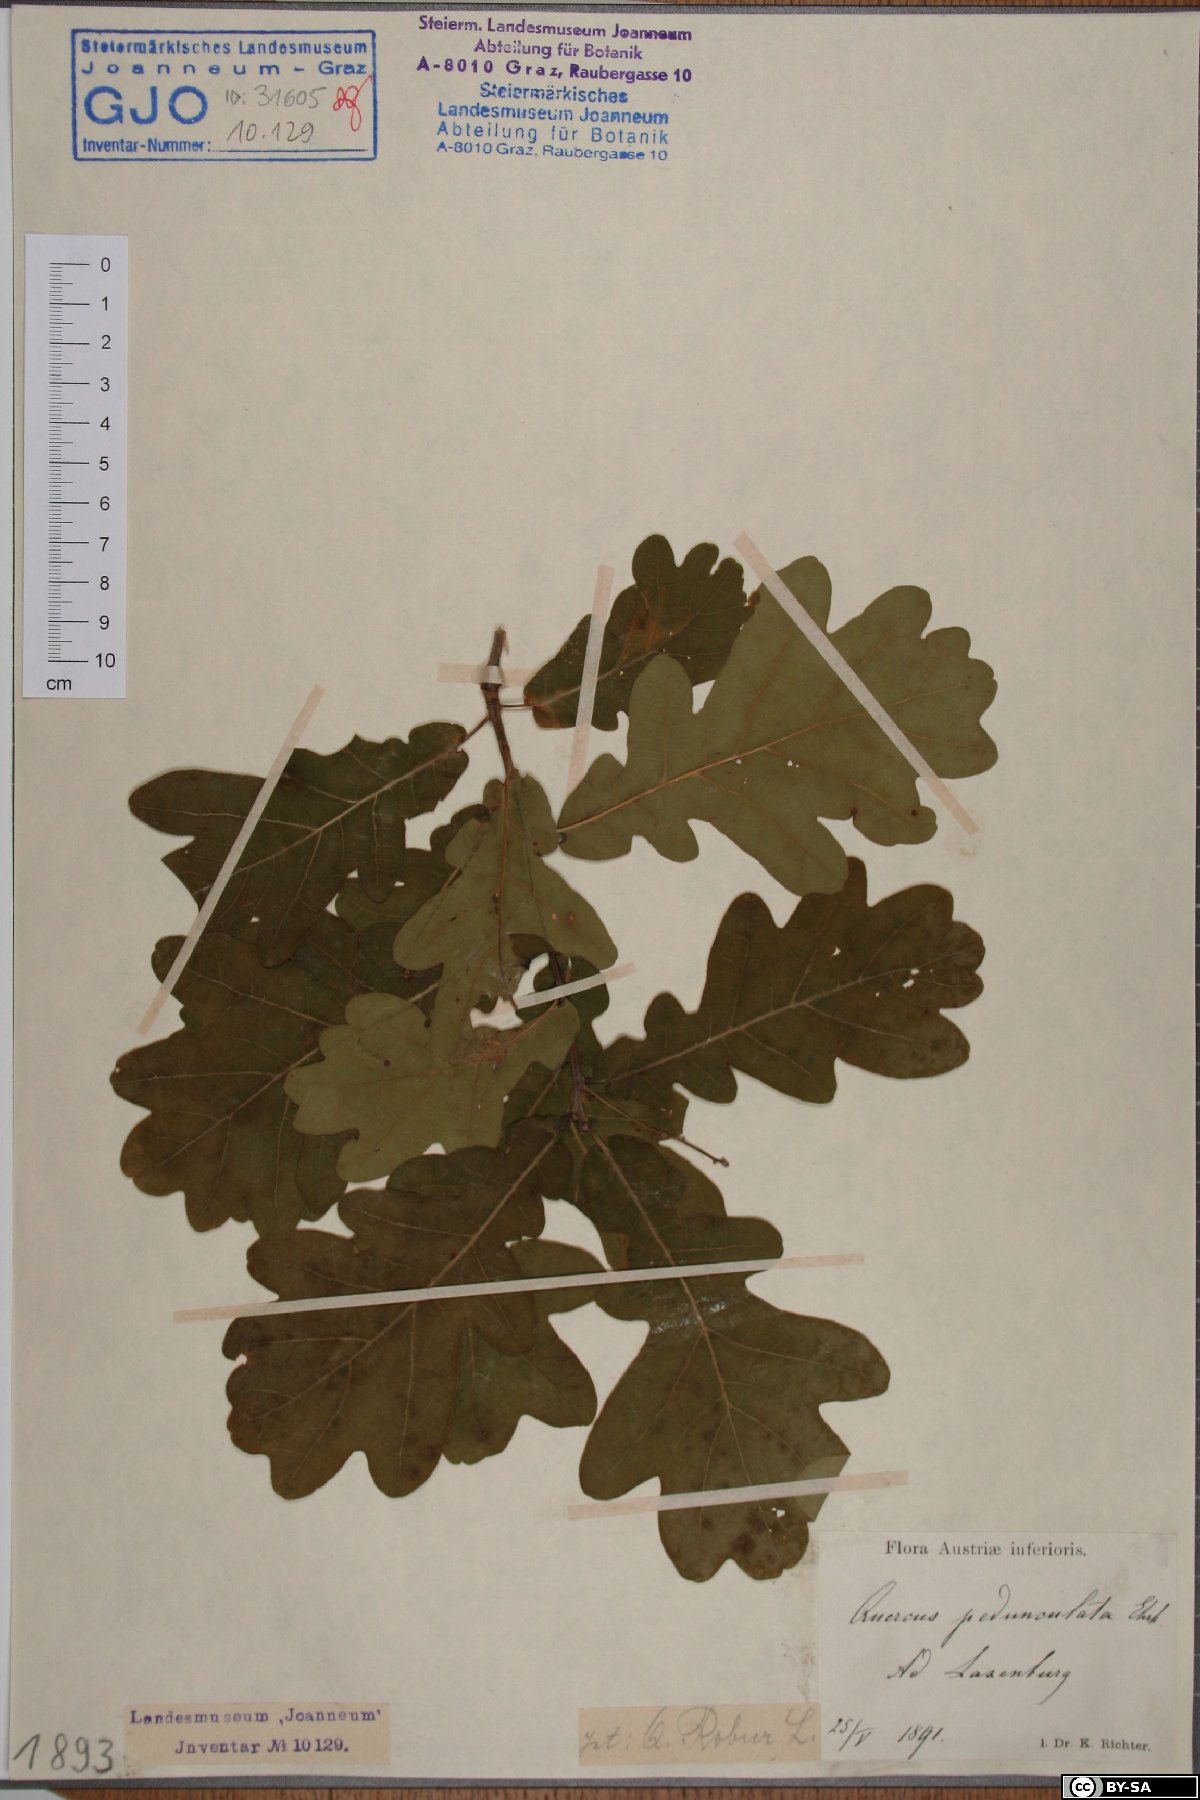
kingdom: Plantae
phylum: Tracheophyta
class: Magnoliopsida
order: Fagales
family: Fagaceae
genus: Quercus
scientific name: Quercus robur
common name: Pedunculate oak
